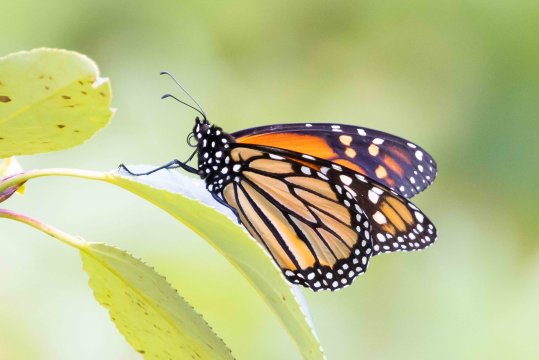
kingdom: Animalia
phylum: Arthropoda
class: Insecta
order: Lepidoptera
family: Nymphalidae
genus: Danaus
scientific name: Danaus plexippus
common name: Monarch
